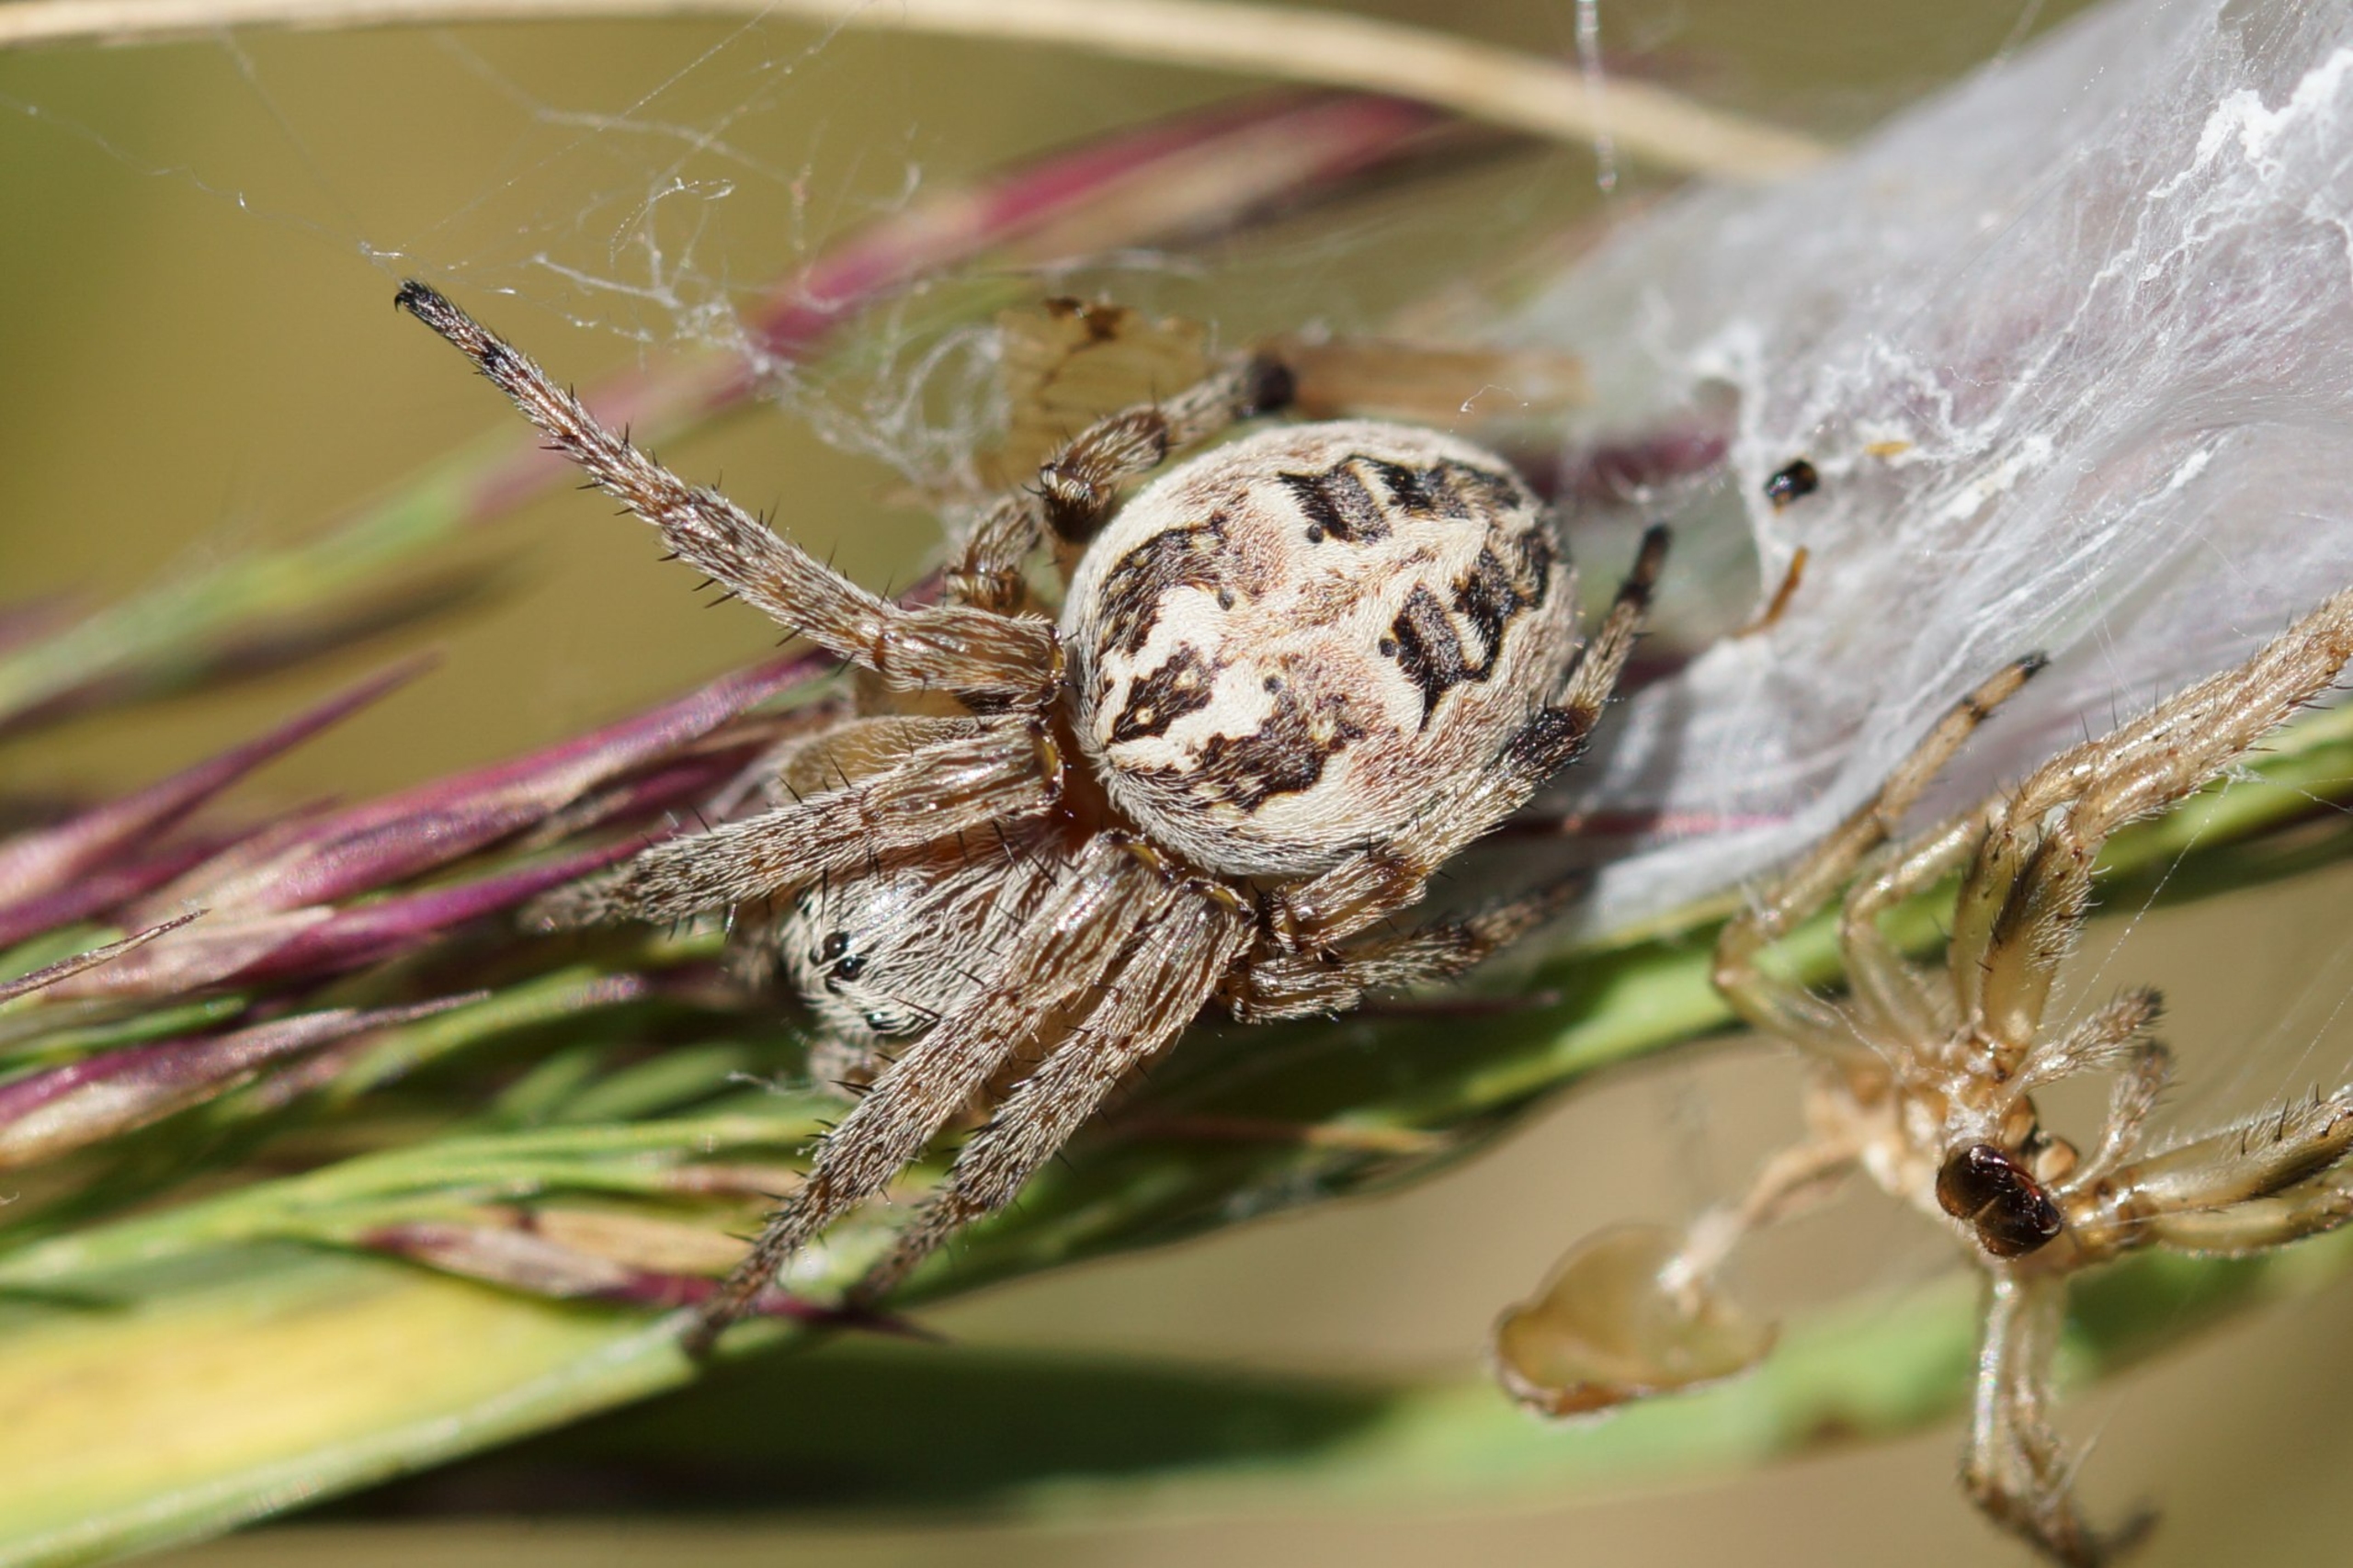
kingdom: Animalia
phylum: Arthropoda
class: Arachnida
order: Araneae
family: Araneidae
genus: Larinioides
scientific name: Larinioides cornutus
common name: Sivhjulspinder
